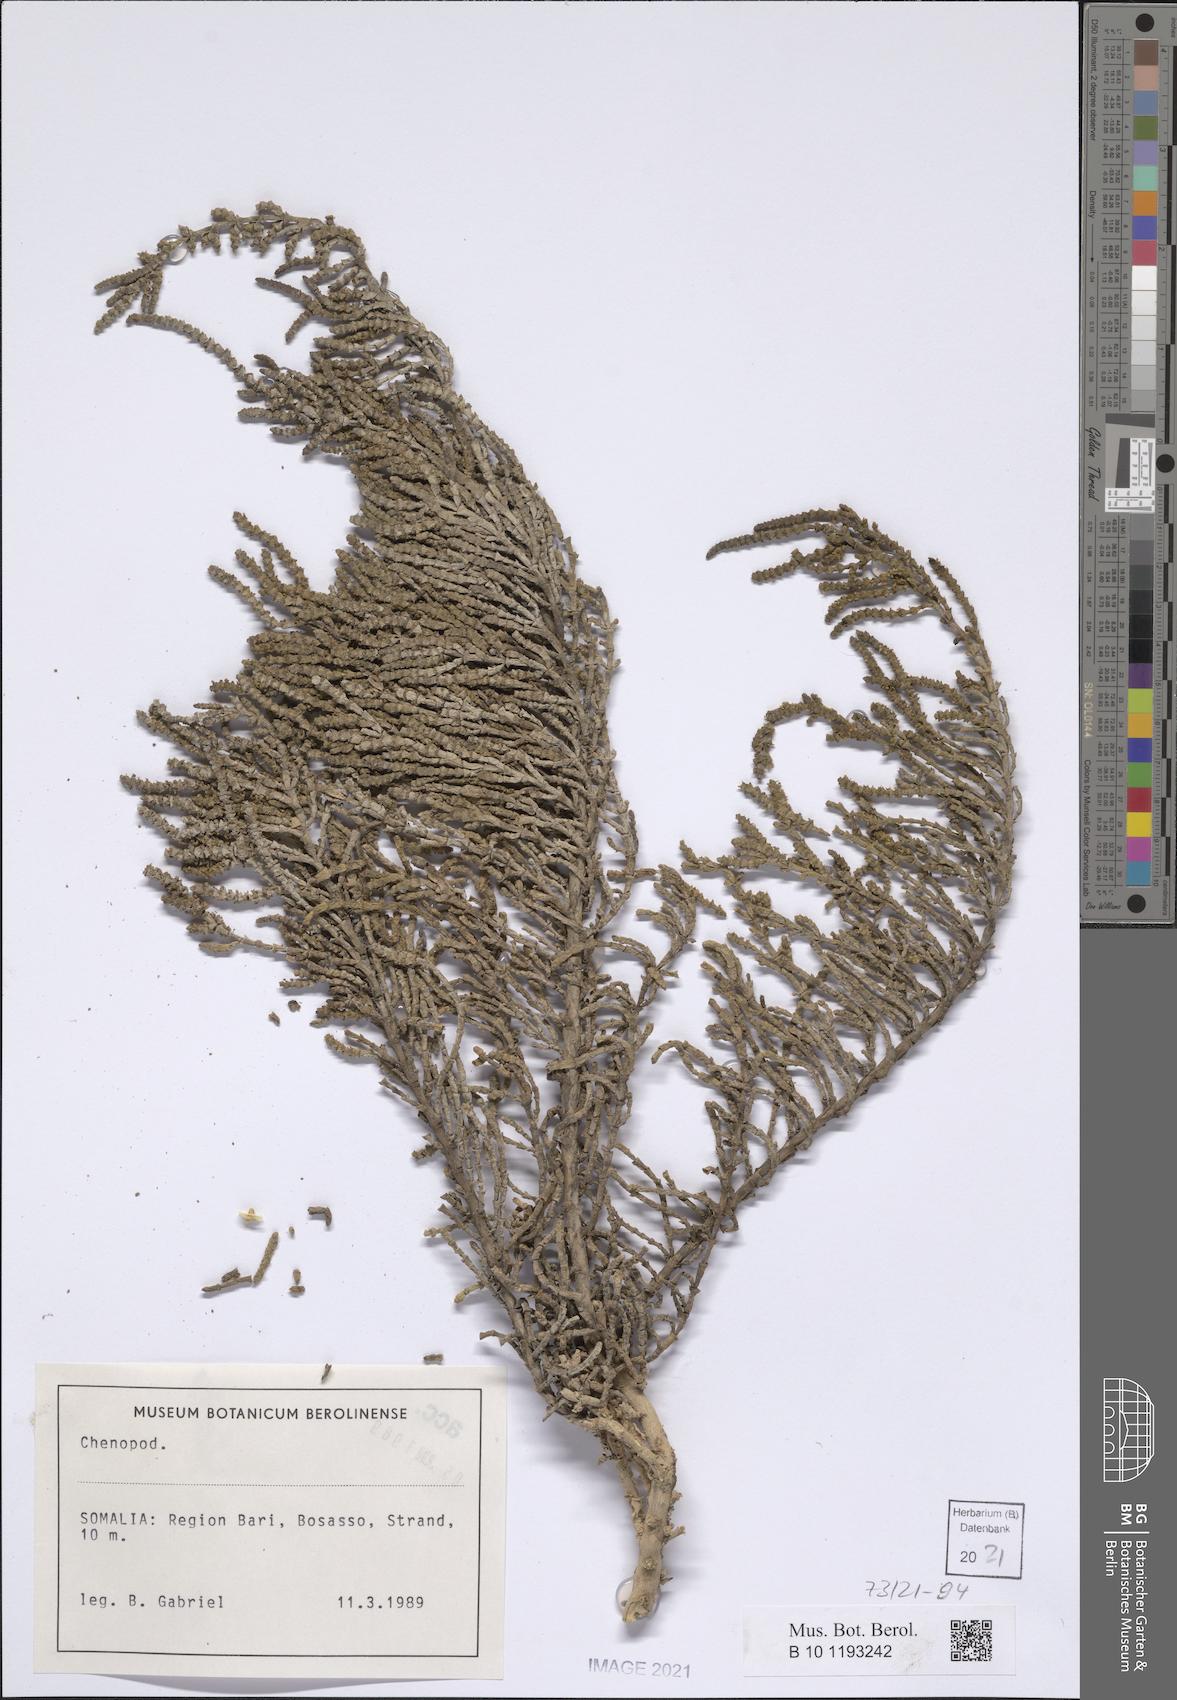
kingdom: Plantae
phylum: Tracheophyta
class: Magnoliopsida
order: Caryophyllales
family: Amaranthaceae
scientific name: Amaranthaceae
